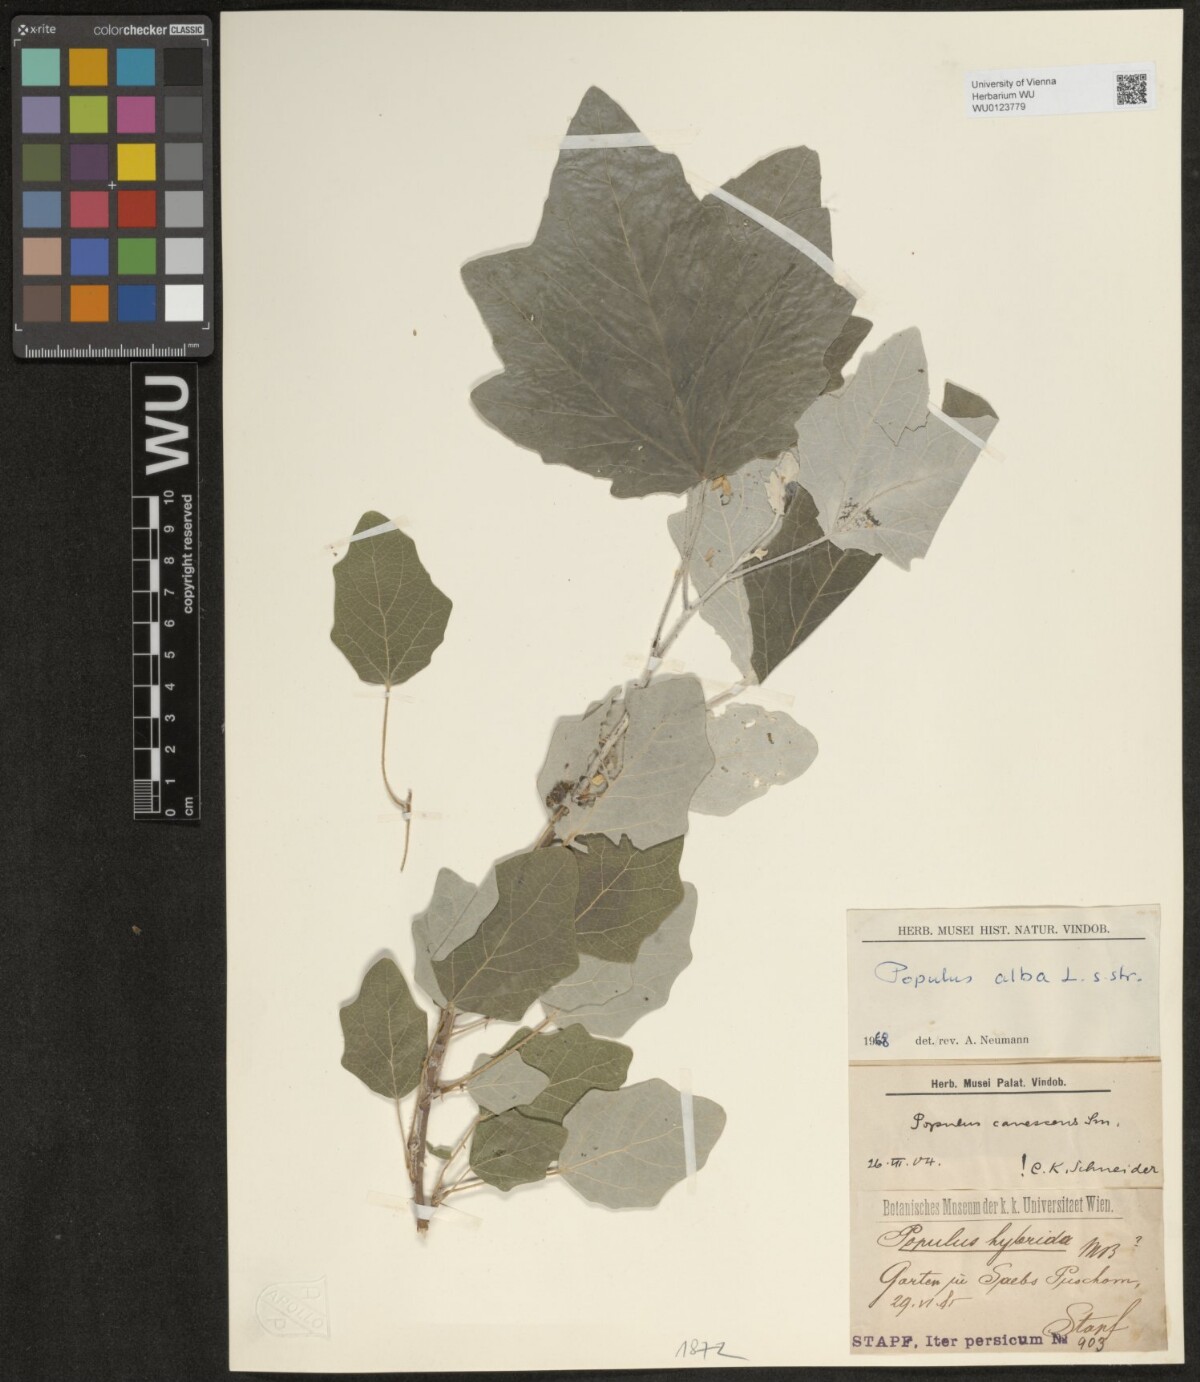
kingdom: Plantae
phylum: Tracheophyta
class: Magnoliopsida
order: Malpighiales
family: Salicaceae
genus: Populus
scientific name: Populus alba
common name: White poplar
